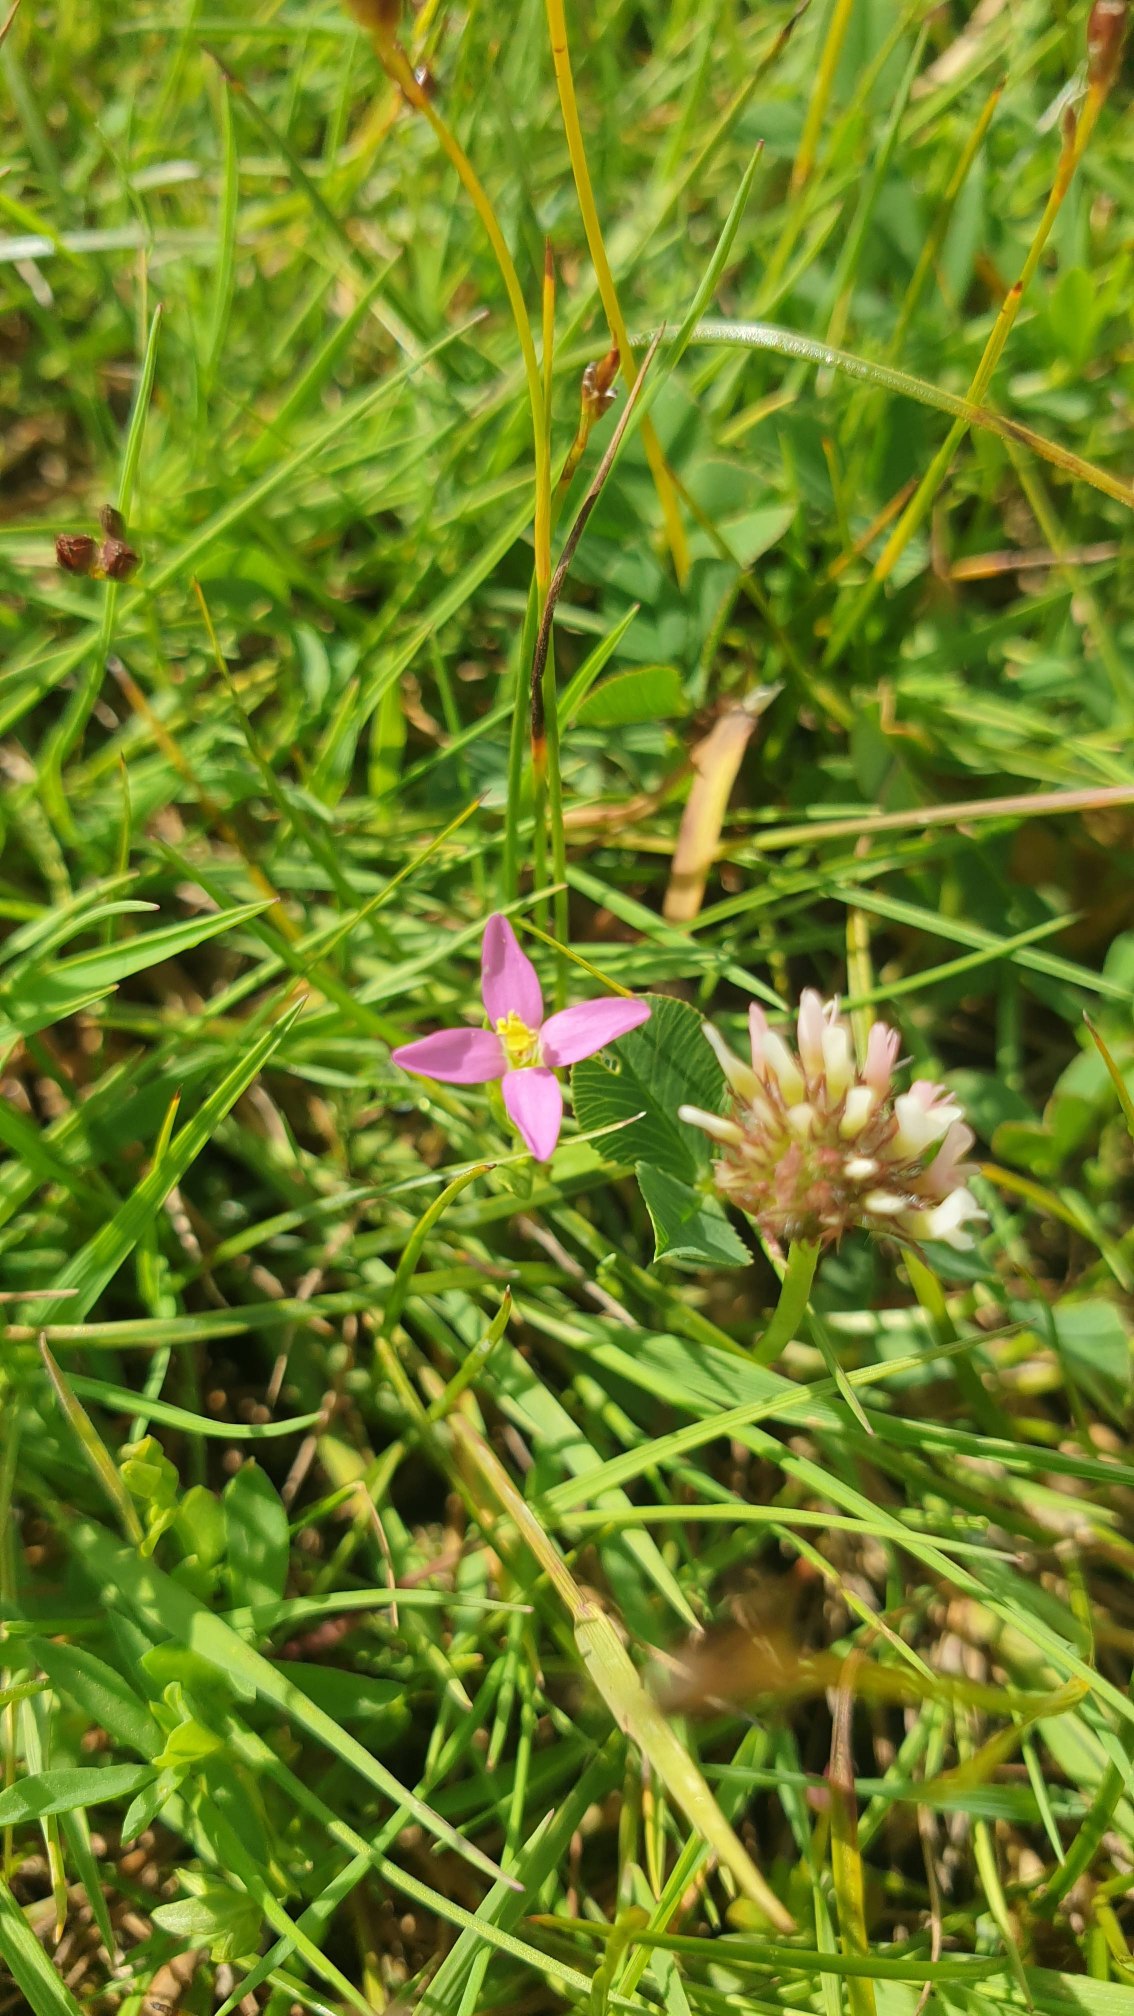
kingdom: Plantae
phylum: Tracheophyta
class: Magnoliopsida
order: Gentianales
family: Gentianaceae
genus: Centaurium
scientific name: Centaurium pulchellum
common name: Liden tusindgylden
